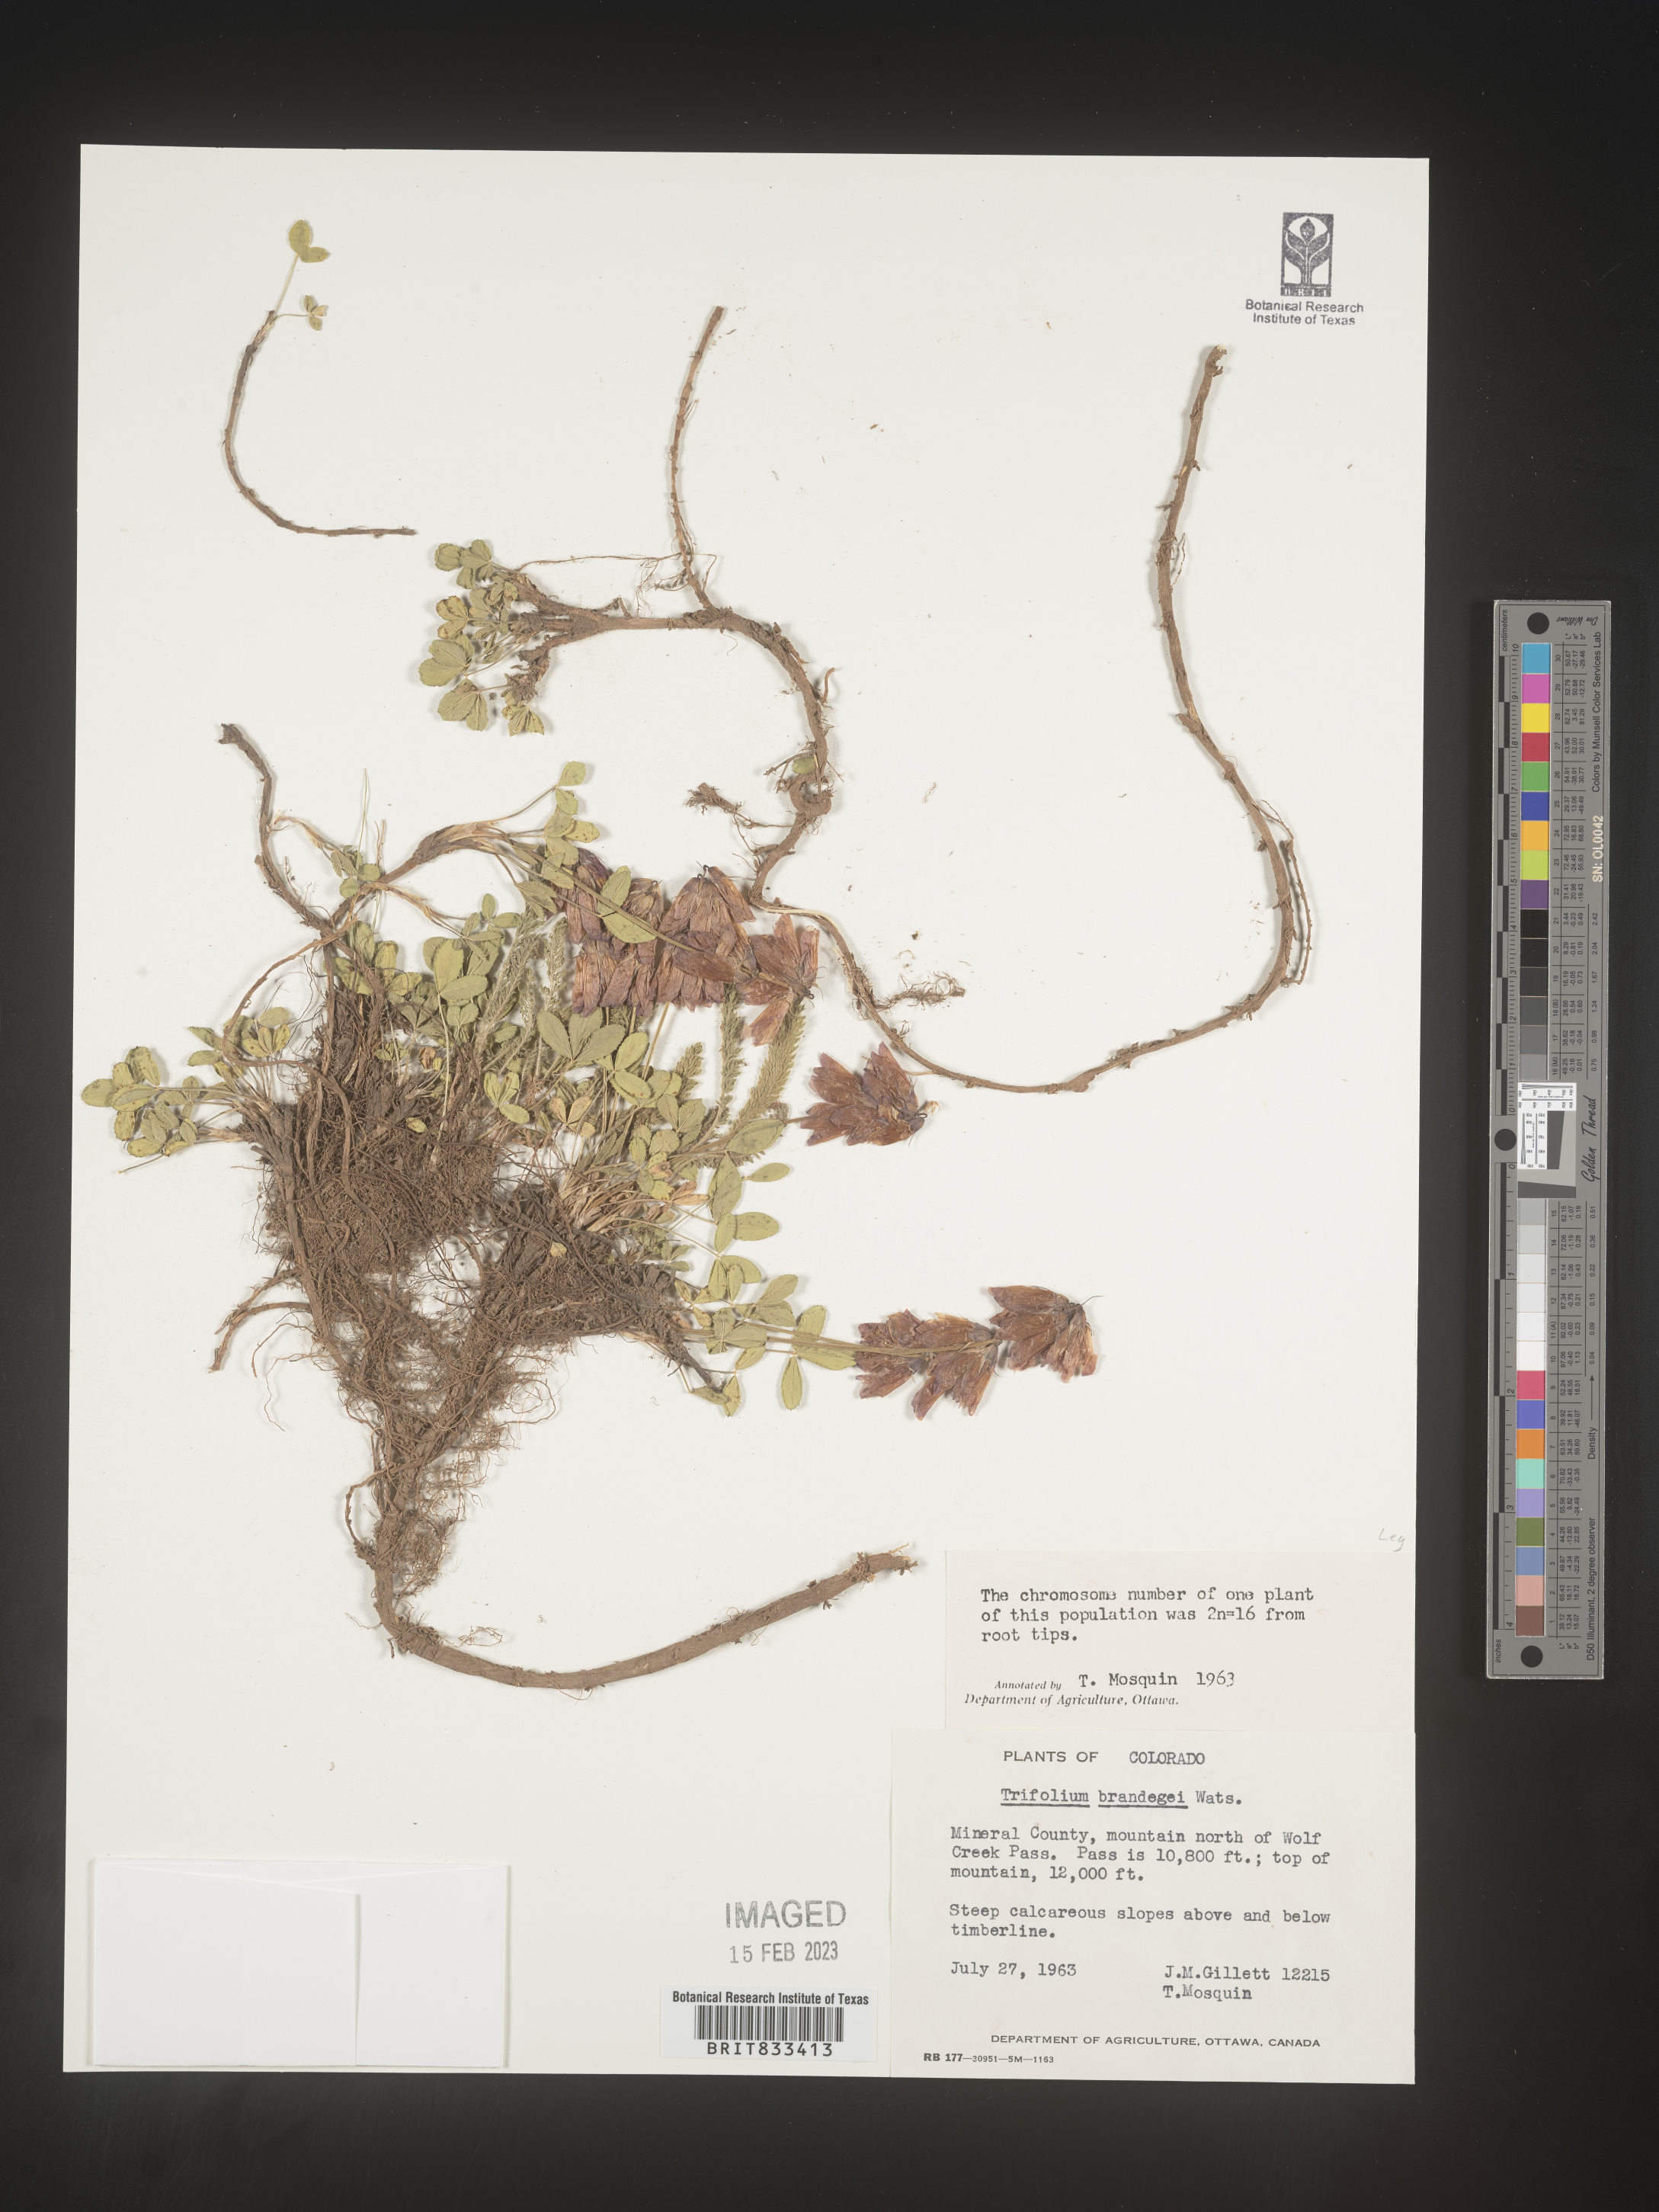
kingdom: Plantae
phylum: Tracheophyta
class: Magnoliopsida
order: Fabales
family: Fabaceae
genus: Trifolium
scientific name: Trifolium
